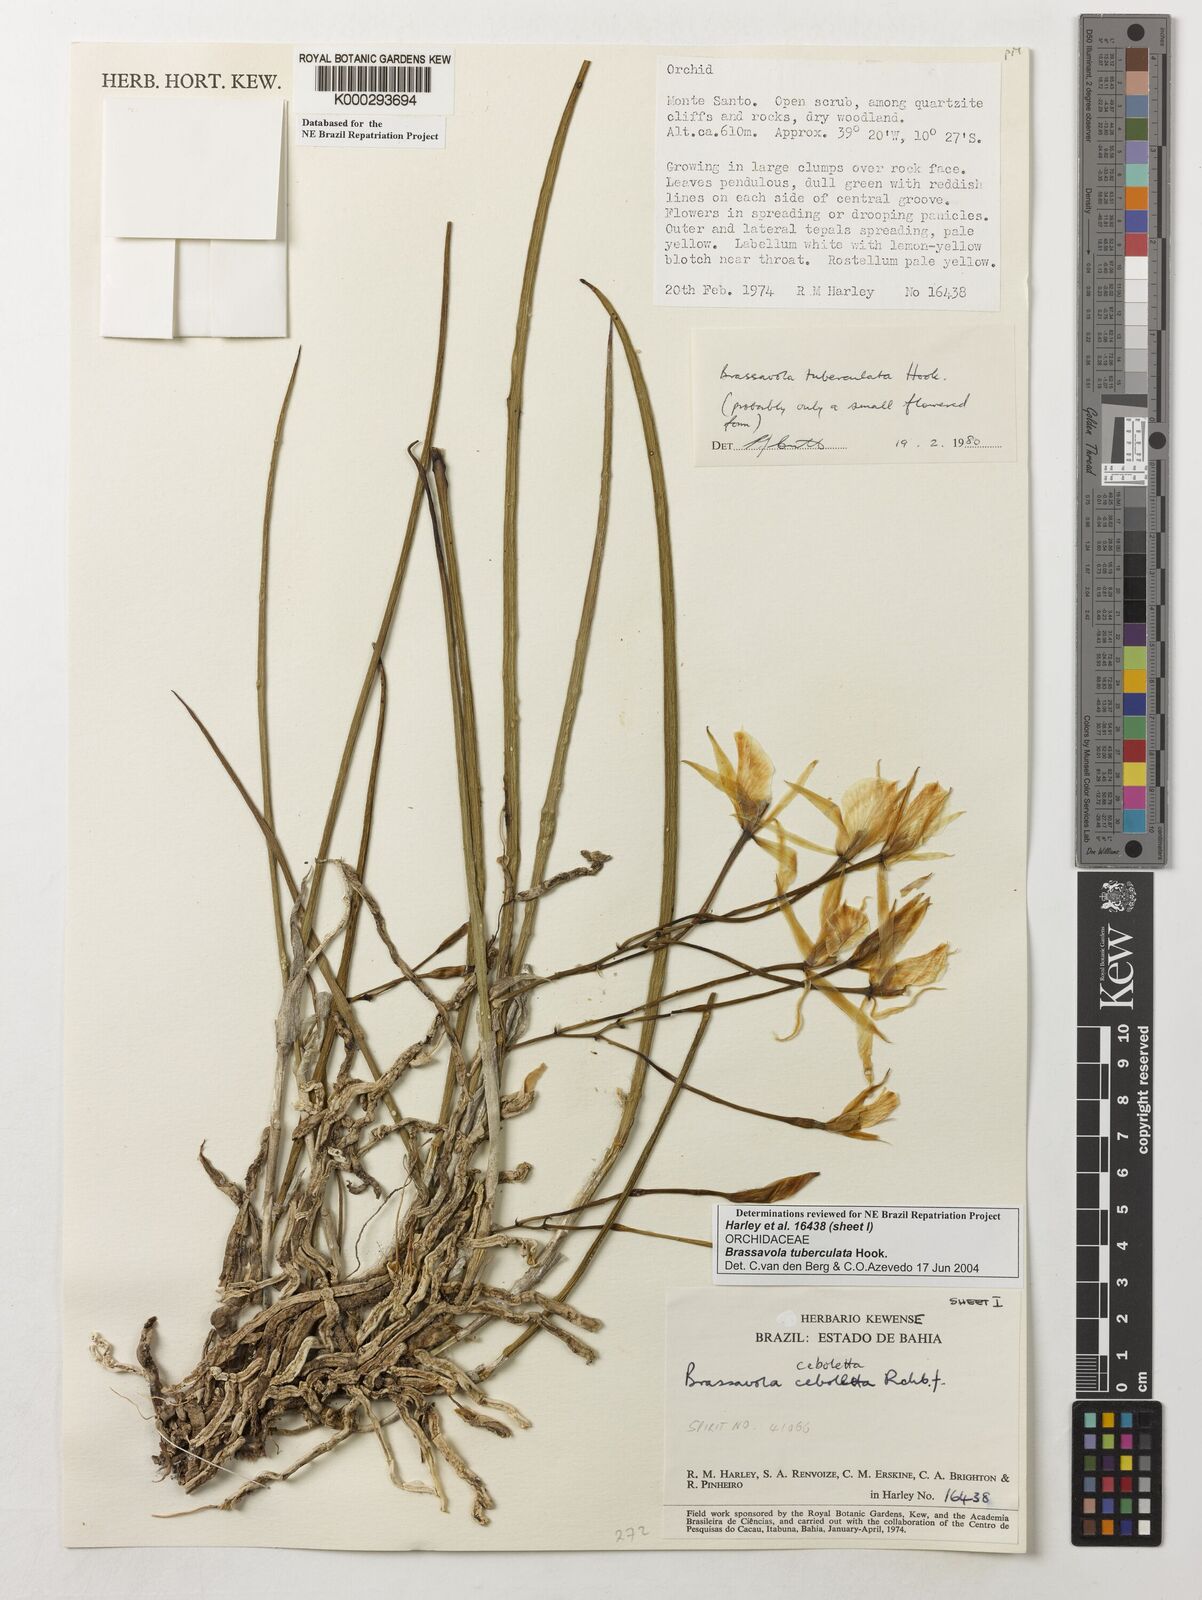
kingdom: Plantae
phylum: Tracheophyta
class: Liliopsida
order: Asparagales
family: Orchidaceae
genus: Brassavola
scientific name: Brassavola tuberculata
